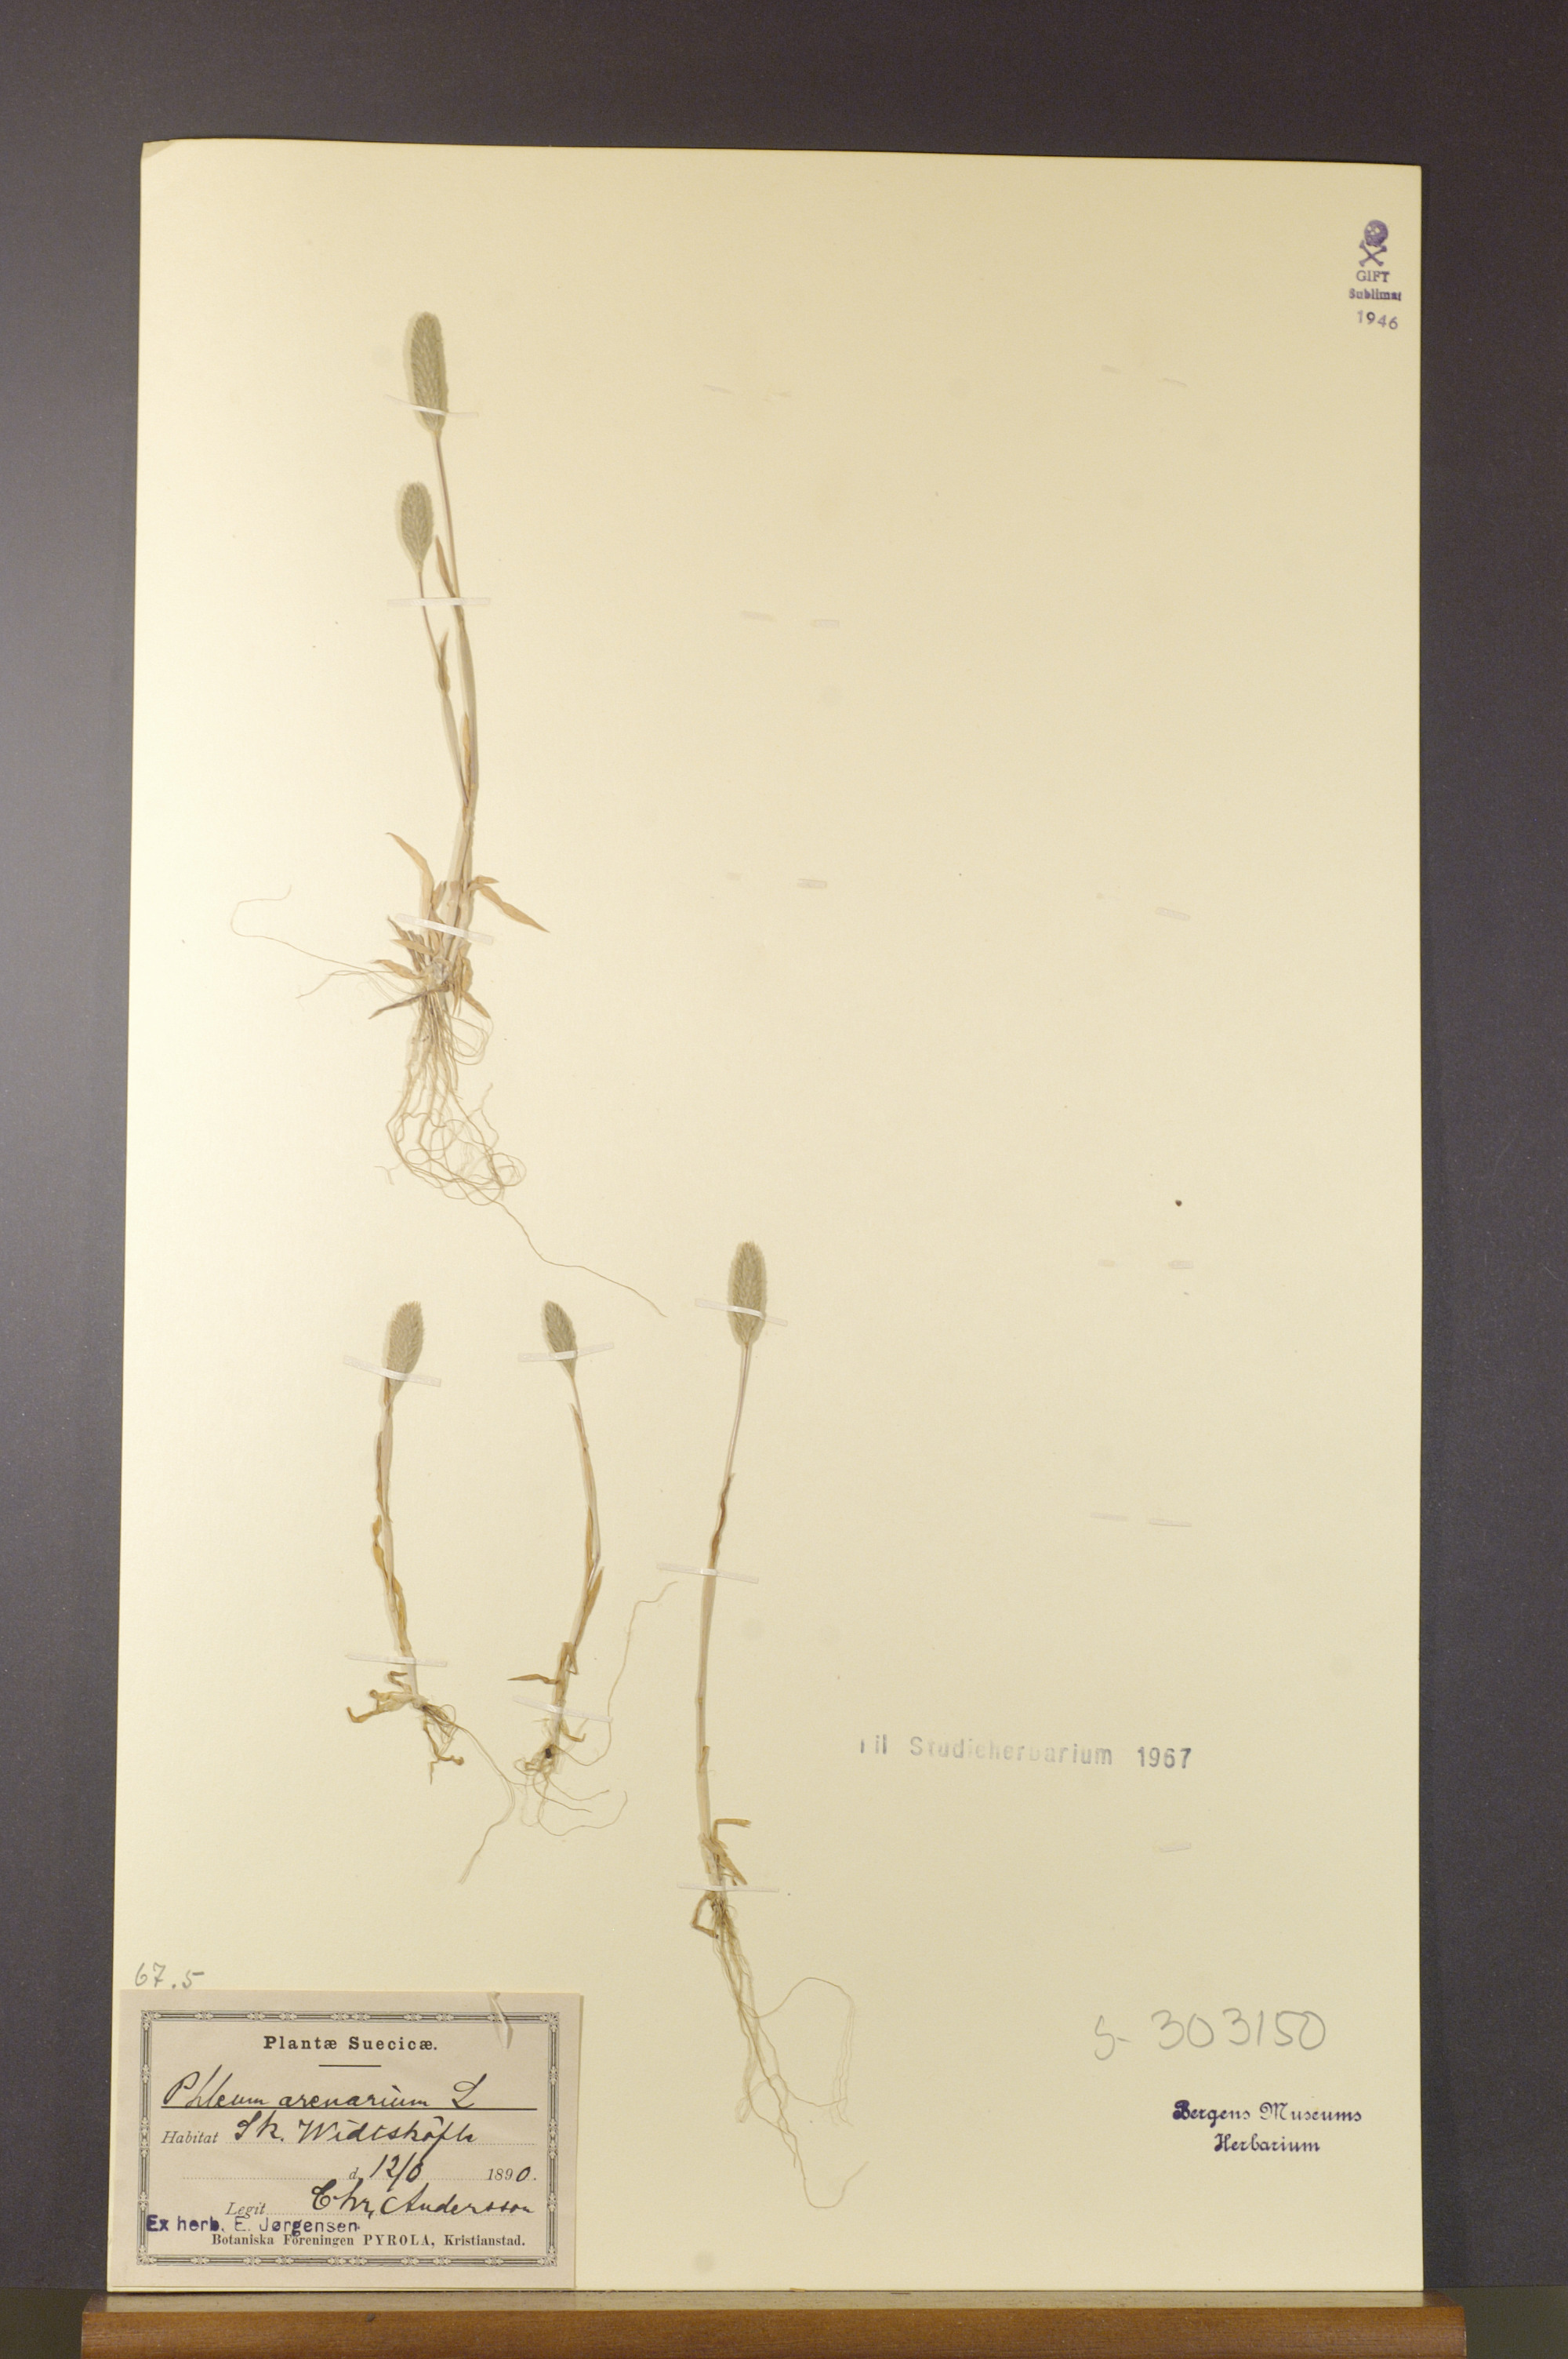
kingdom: Plantae
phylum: Tracheophyta
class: Liliopsida
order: Poales
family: Poaceae
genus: Phleum
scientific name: Phleum arenarium
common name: Sand cat's-tail
